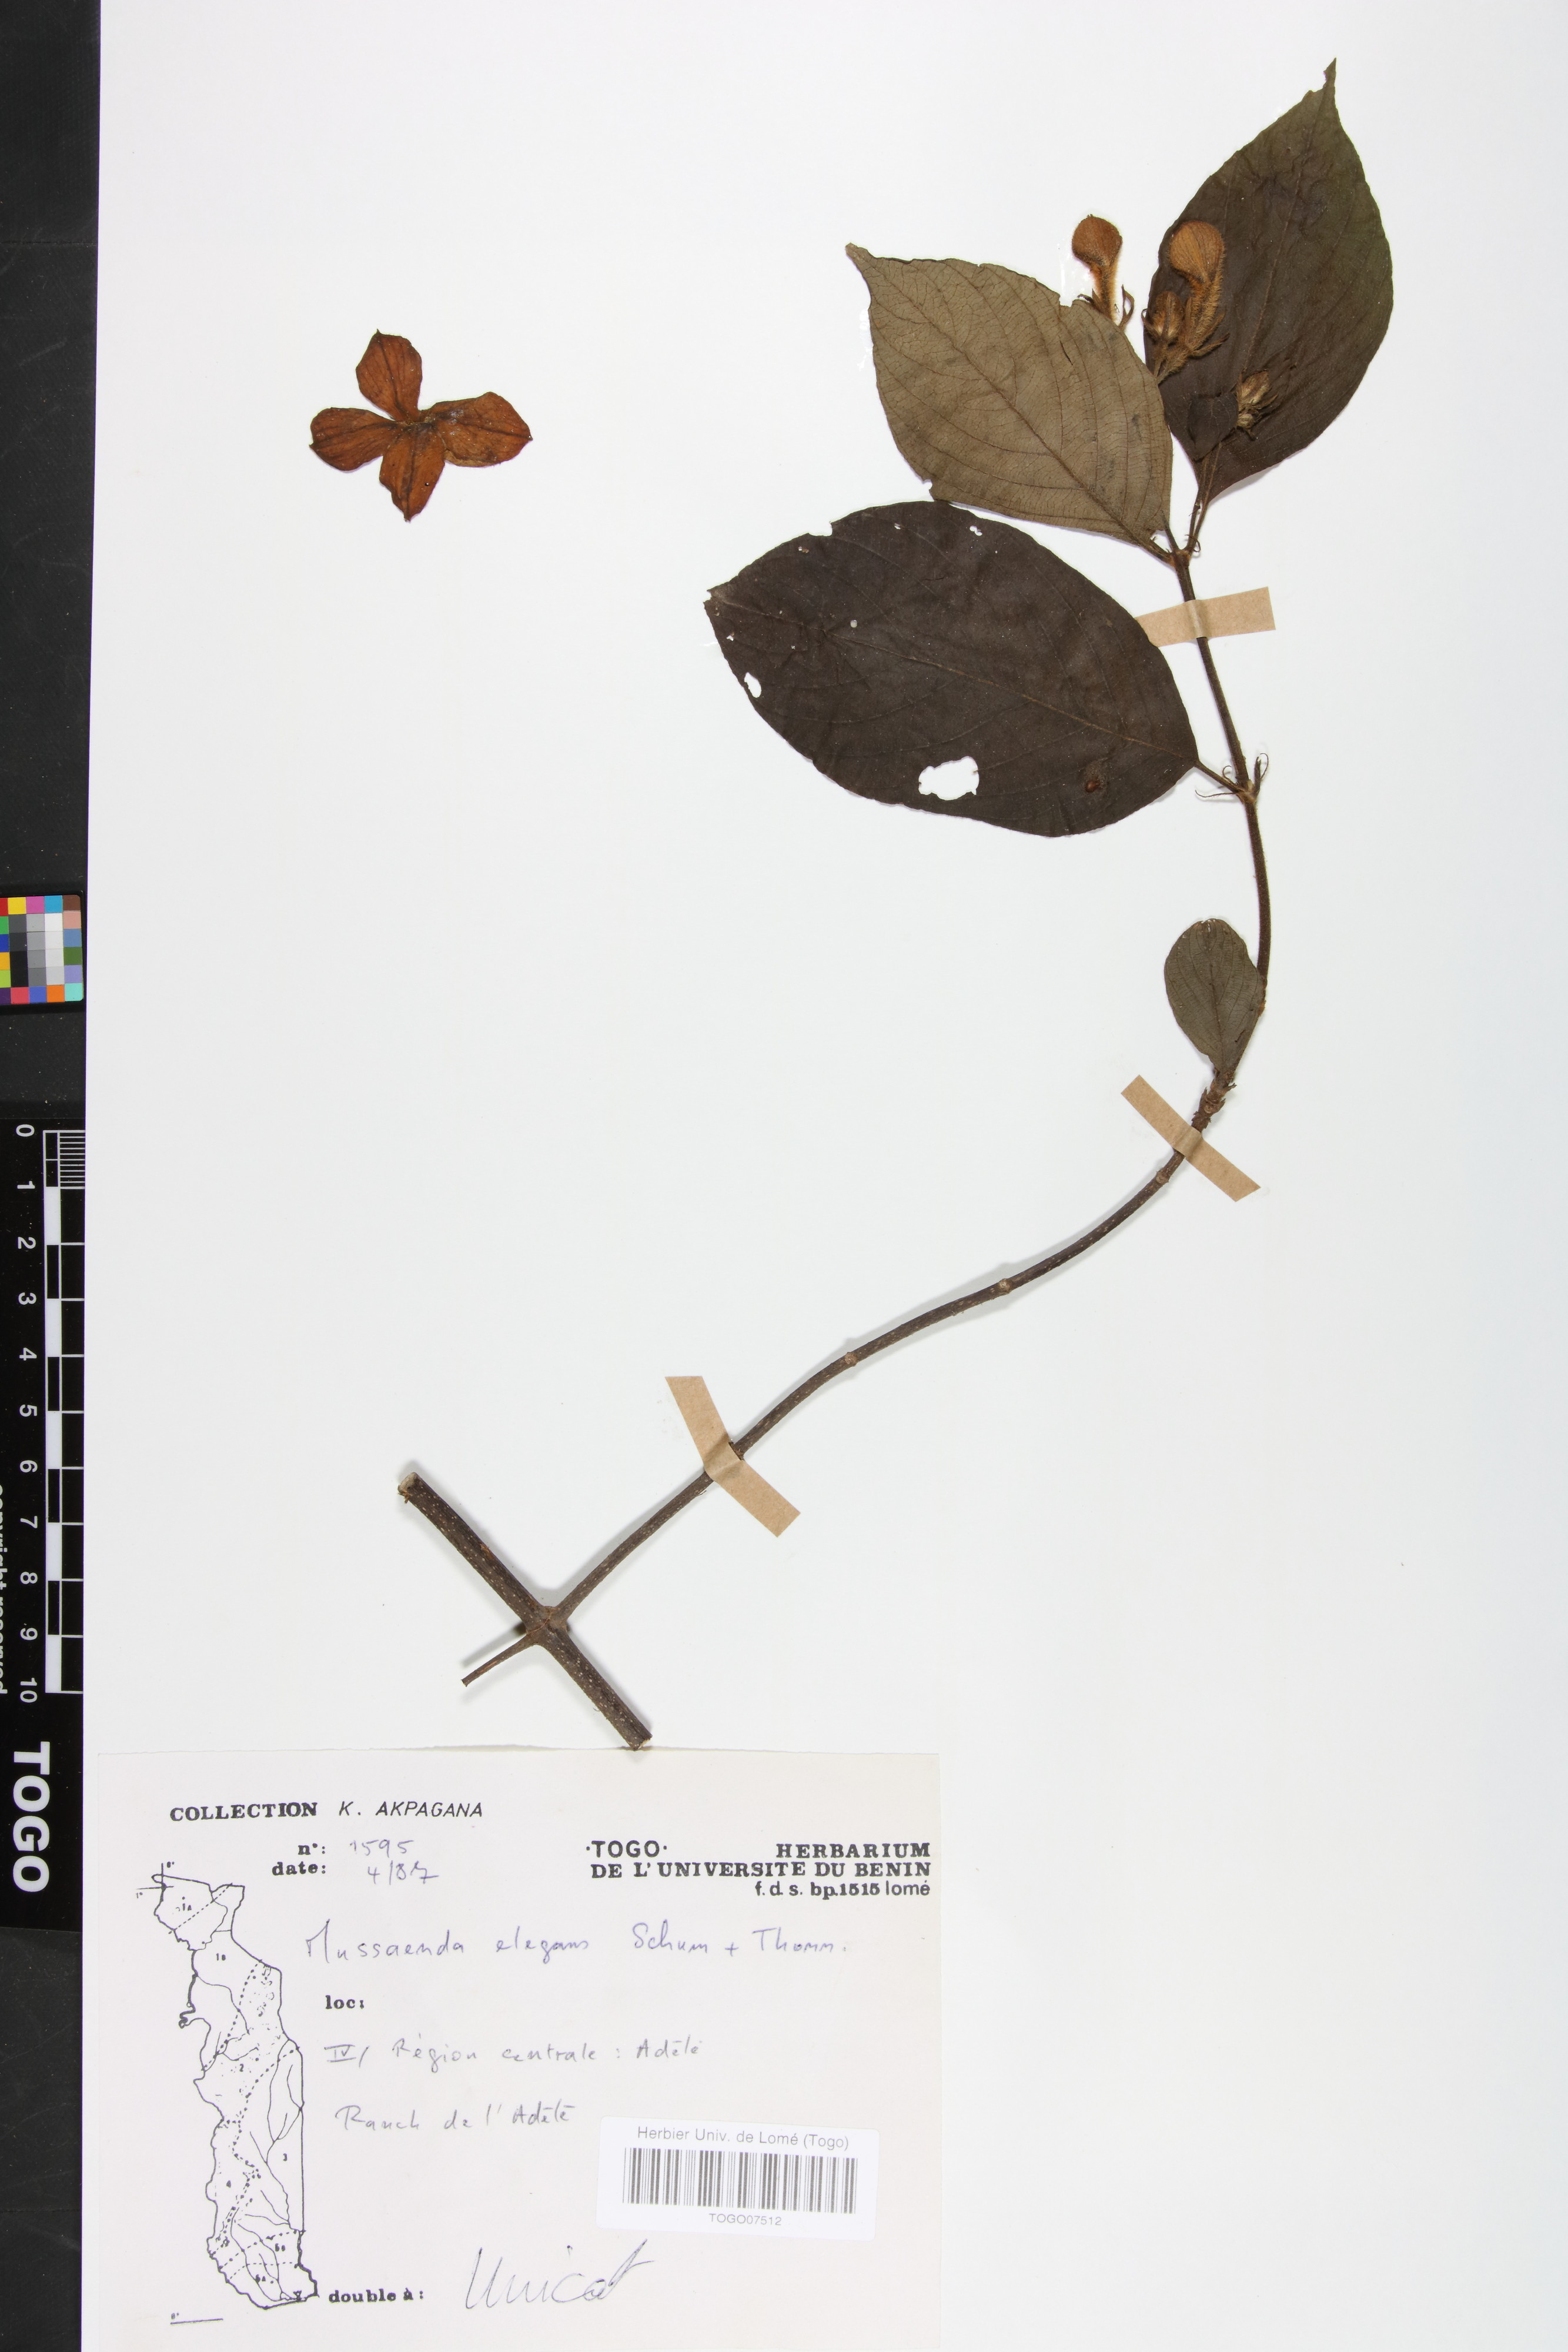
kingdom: Plantae
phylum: Tracheophyta
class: Magnoliopsida
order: Gentianales
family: Rubiaceae
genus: Mussaenda
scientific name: Mussaenda elegans
